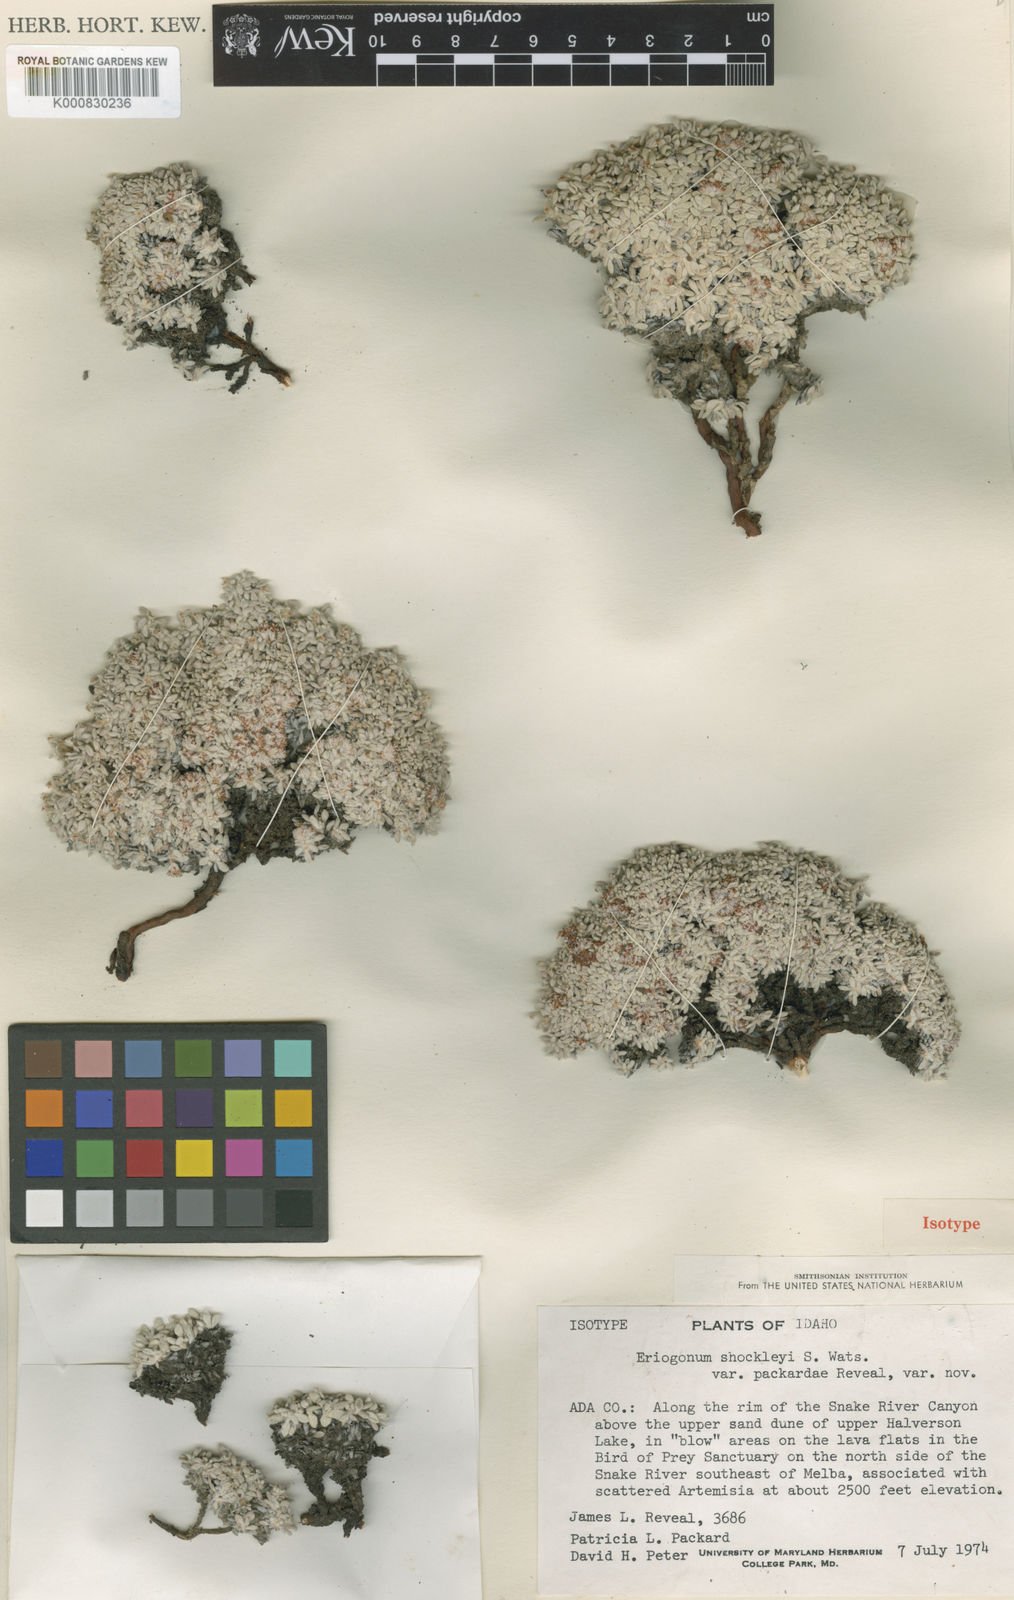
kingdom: Plantae
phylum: Tracheophyta
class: Magnoliopsida
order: Caryophyllales
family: Polygonaceae
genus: Eriogonum
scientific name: Eriogonum shockleyi
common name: Shockley's wild buckwheat
